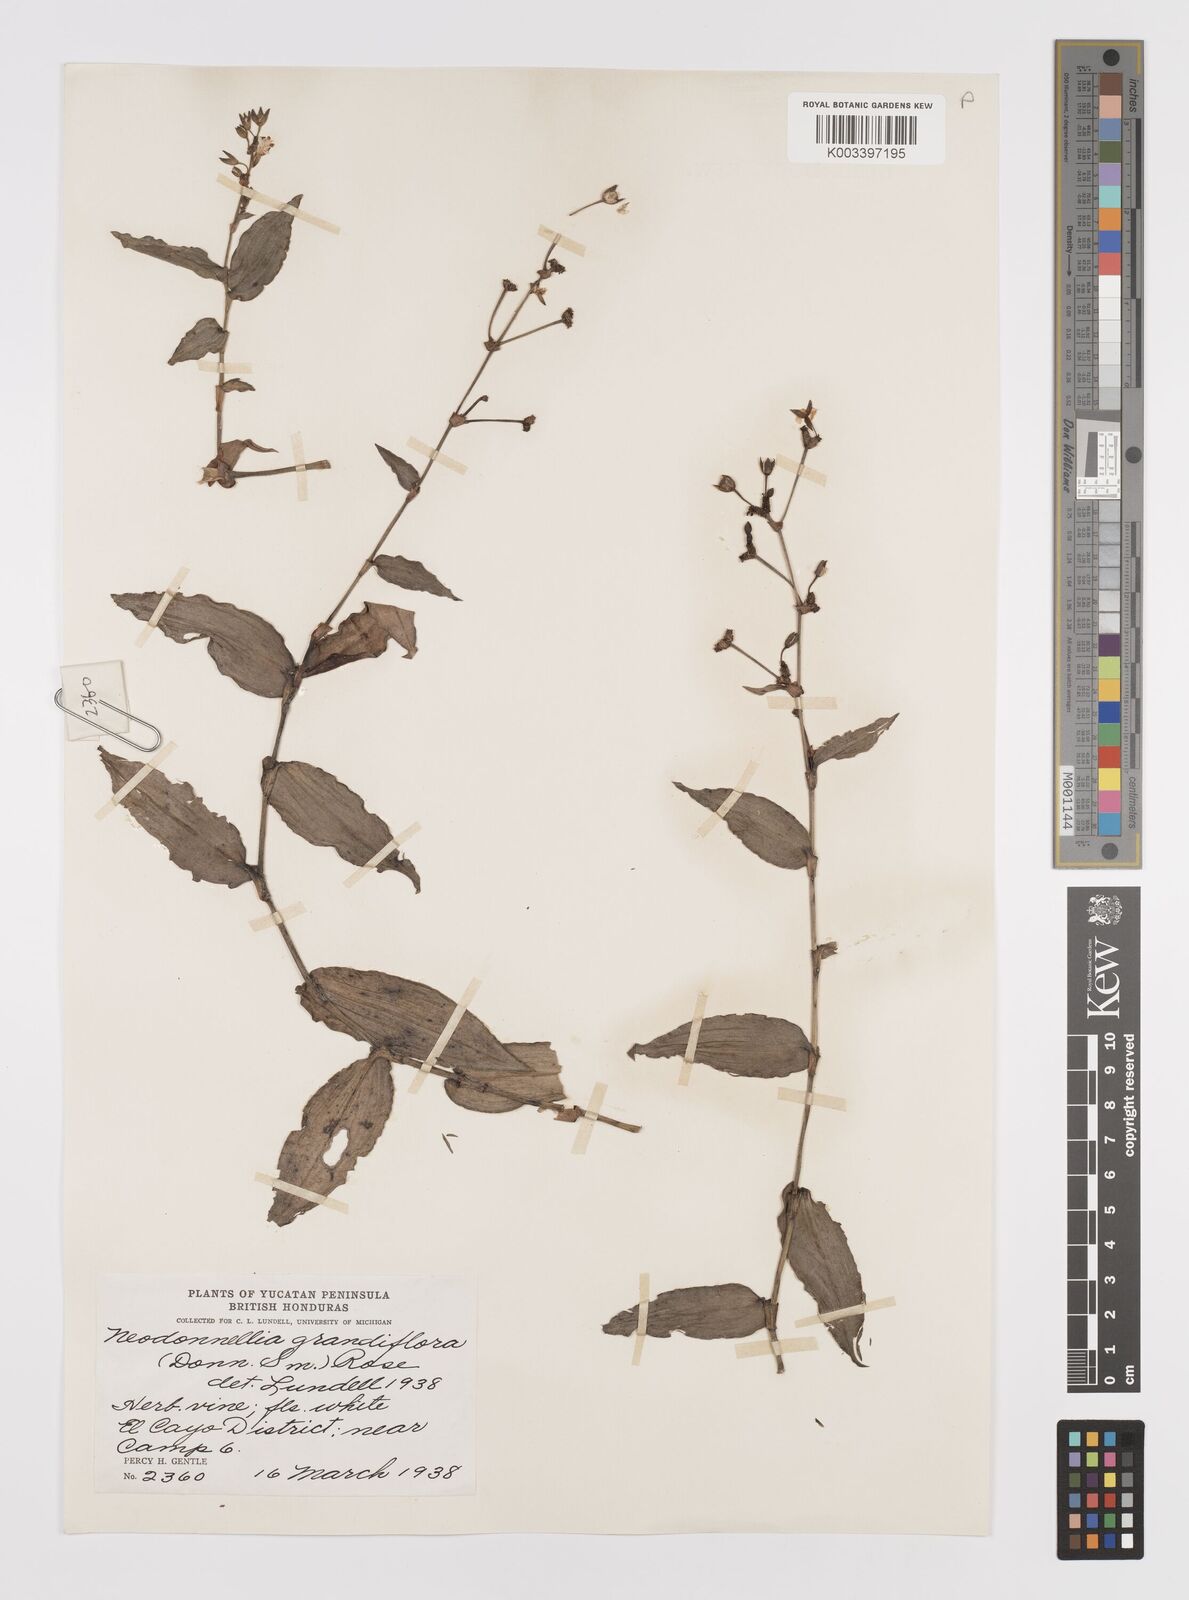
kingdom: Plantae
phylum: Tracheophyta
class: Liliopsida
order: Commelinales
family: Commelinaceae
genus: Callisia
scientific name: Callisia grandiflora
